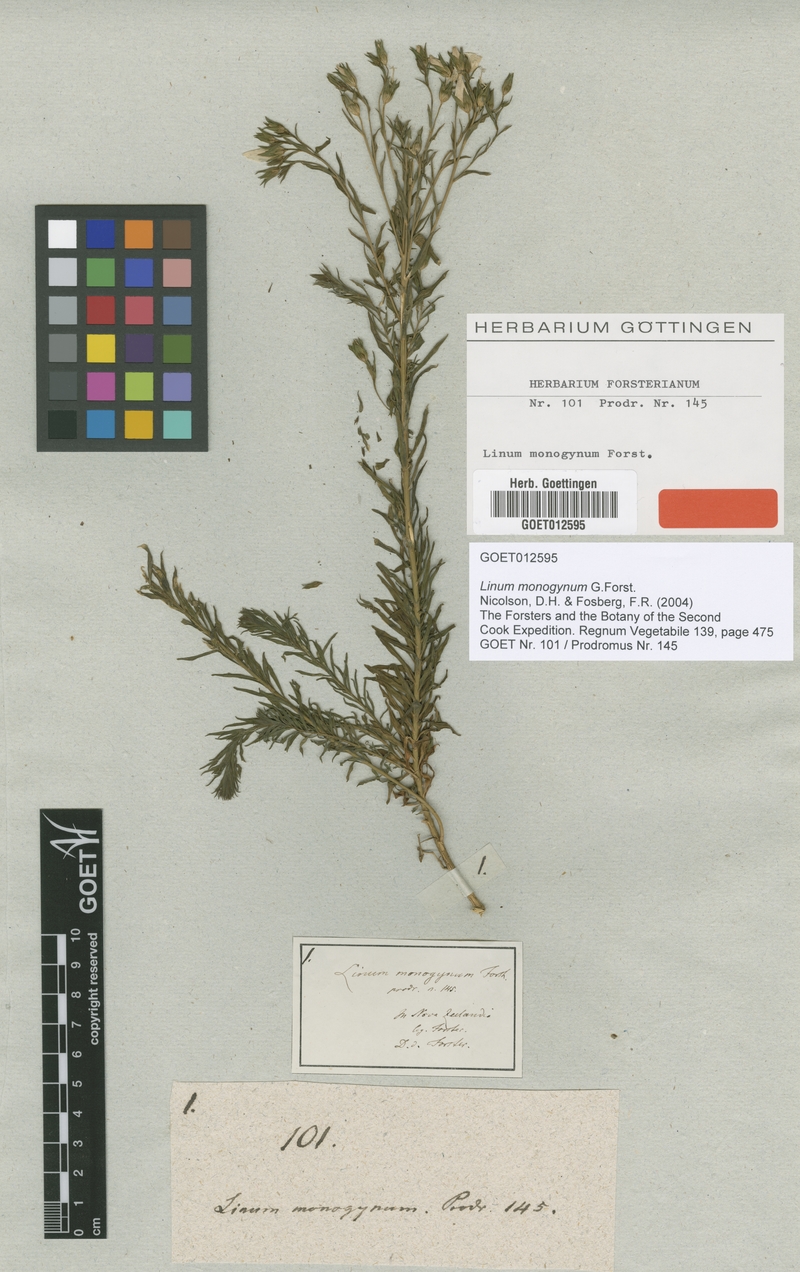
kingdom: Plantae
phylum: Tracheophyta
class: Magnoliopsida
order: Malpighiales
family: Linaceae
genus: Linum
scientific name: Linum monogynum
